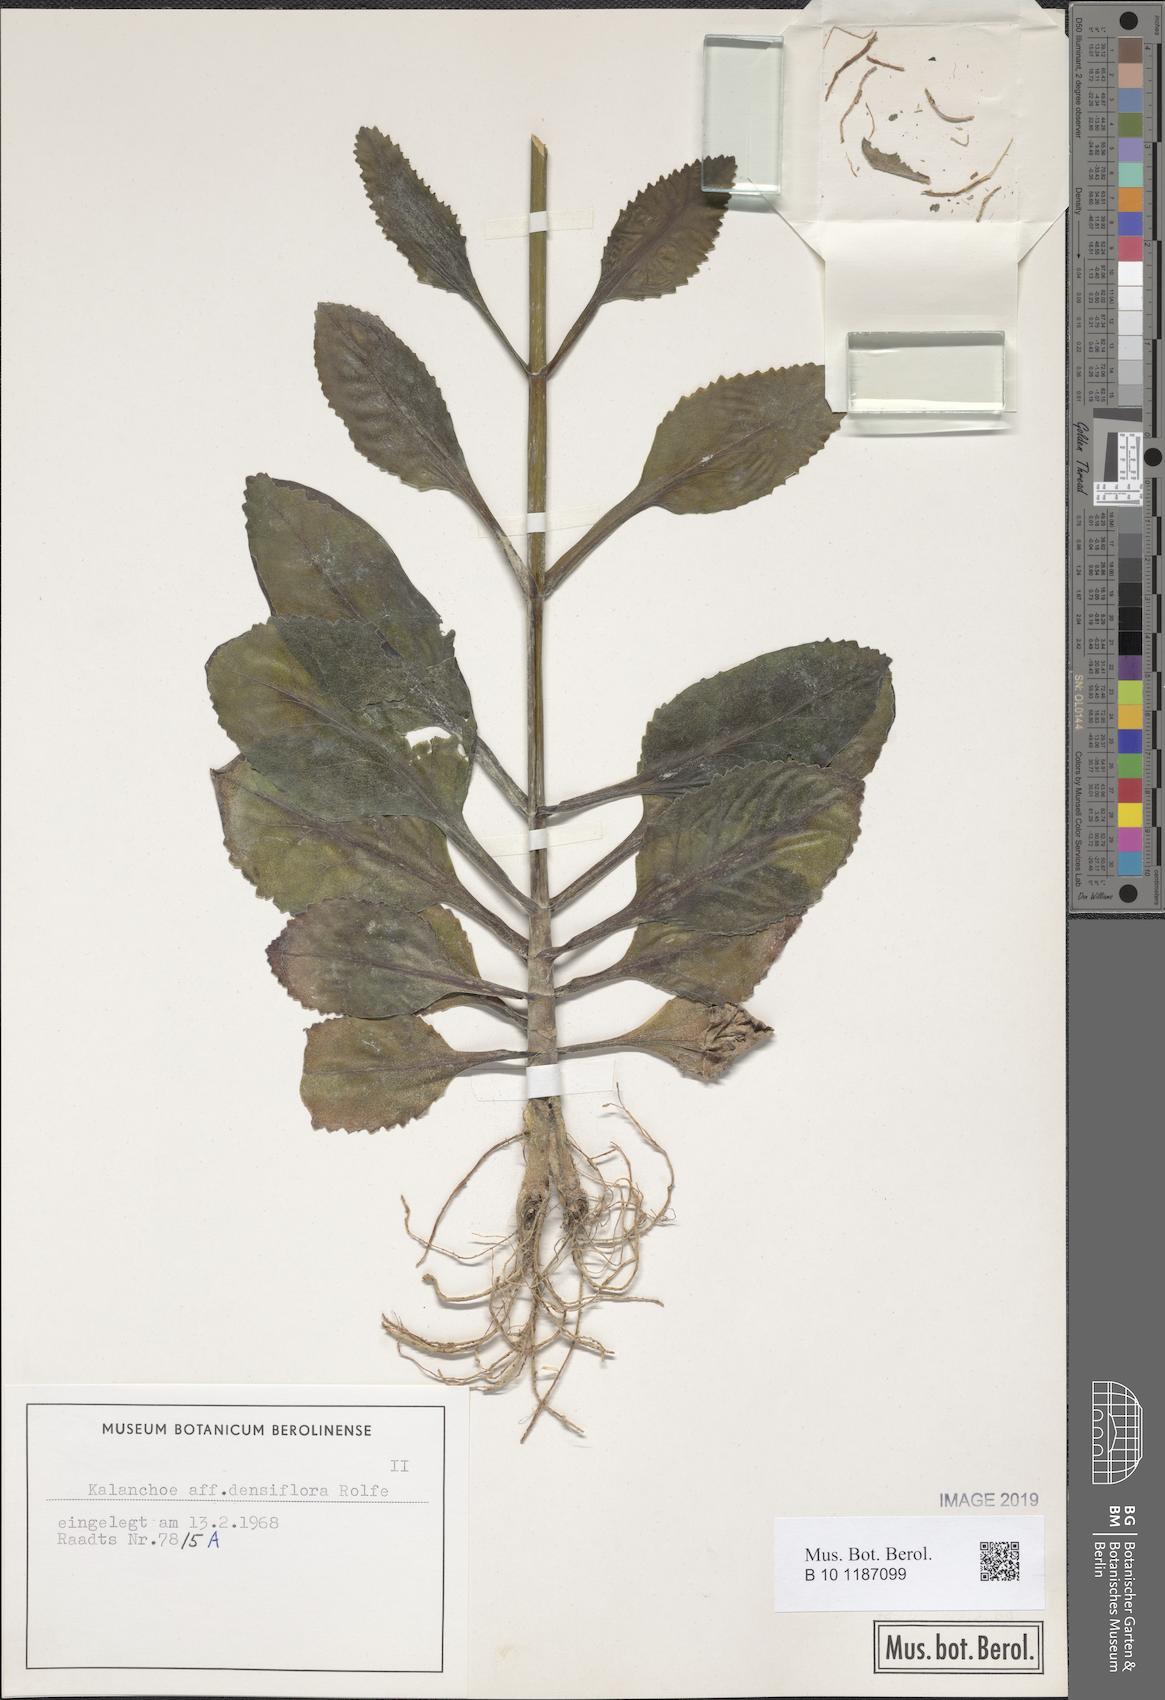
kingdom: Plantae
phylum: Tracheophyta
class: Magnoliopsida
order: Saxifragales
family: Crassulaceae
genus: Kalanchoe
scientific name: Kalanchoe densiflora
